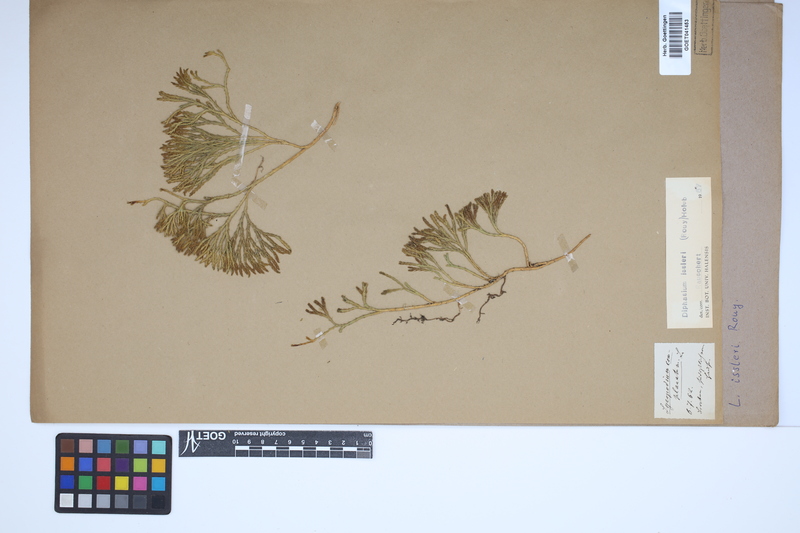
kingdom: Plantae
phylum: Tracheophyta
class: Lycopodiopsida
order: Lycopodiales
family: Lycopodiaceae
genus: Diphasiastrum
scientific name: Diphasiastrum issleri
